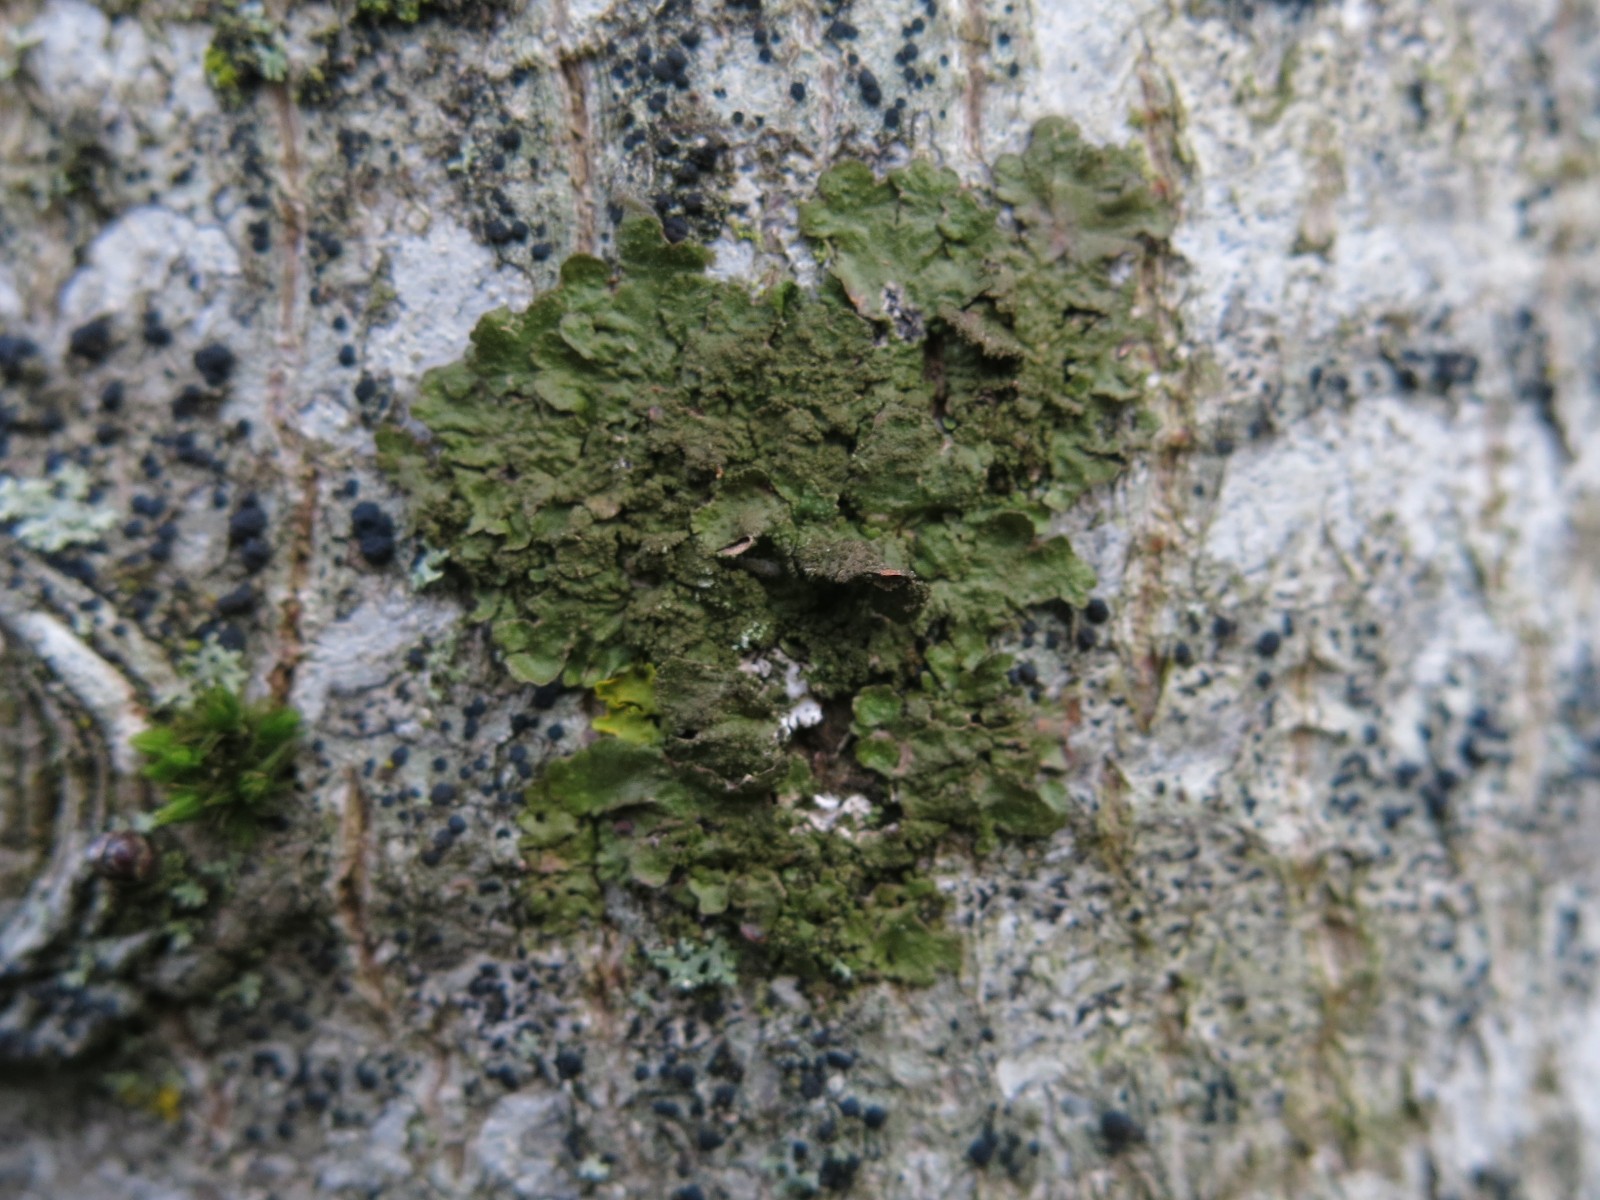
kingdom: Fungi
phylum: Ascomycota
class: Lecanoromycetes
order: Lecanorales
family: Parmeliaceae
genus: Melanelixia
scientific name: Melanelixia subaurifera
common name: guldpudret skållav
